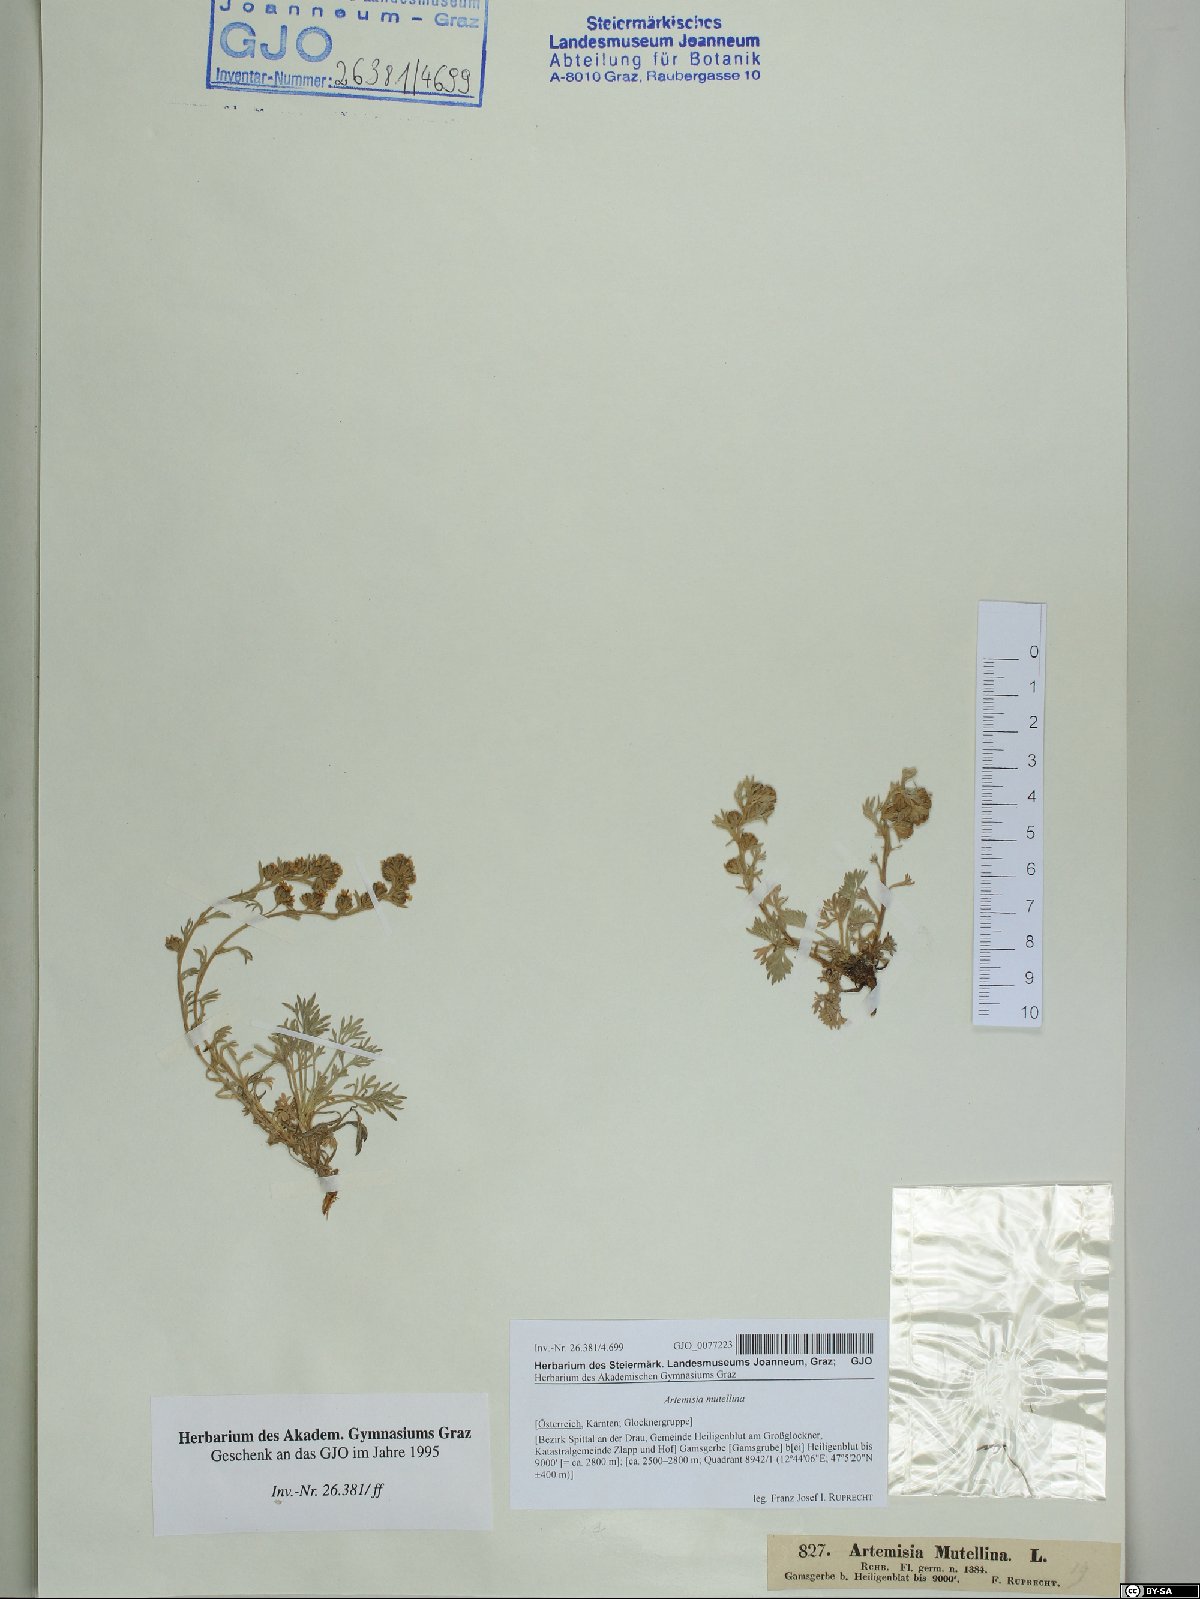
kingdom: Plantae
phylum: Tracheophyta
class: Magnoliopsida
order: Asterales
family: Asteraceae
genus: Artemisia
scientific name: Artemisia mutellina
